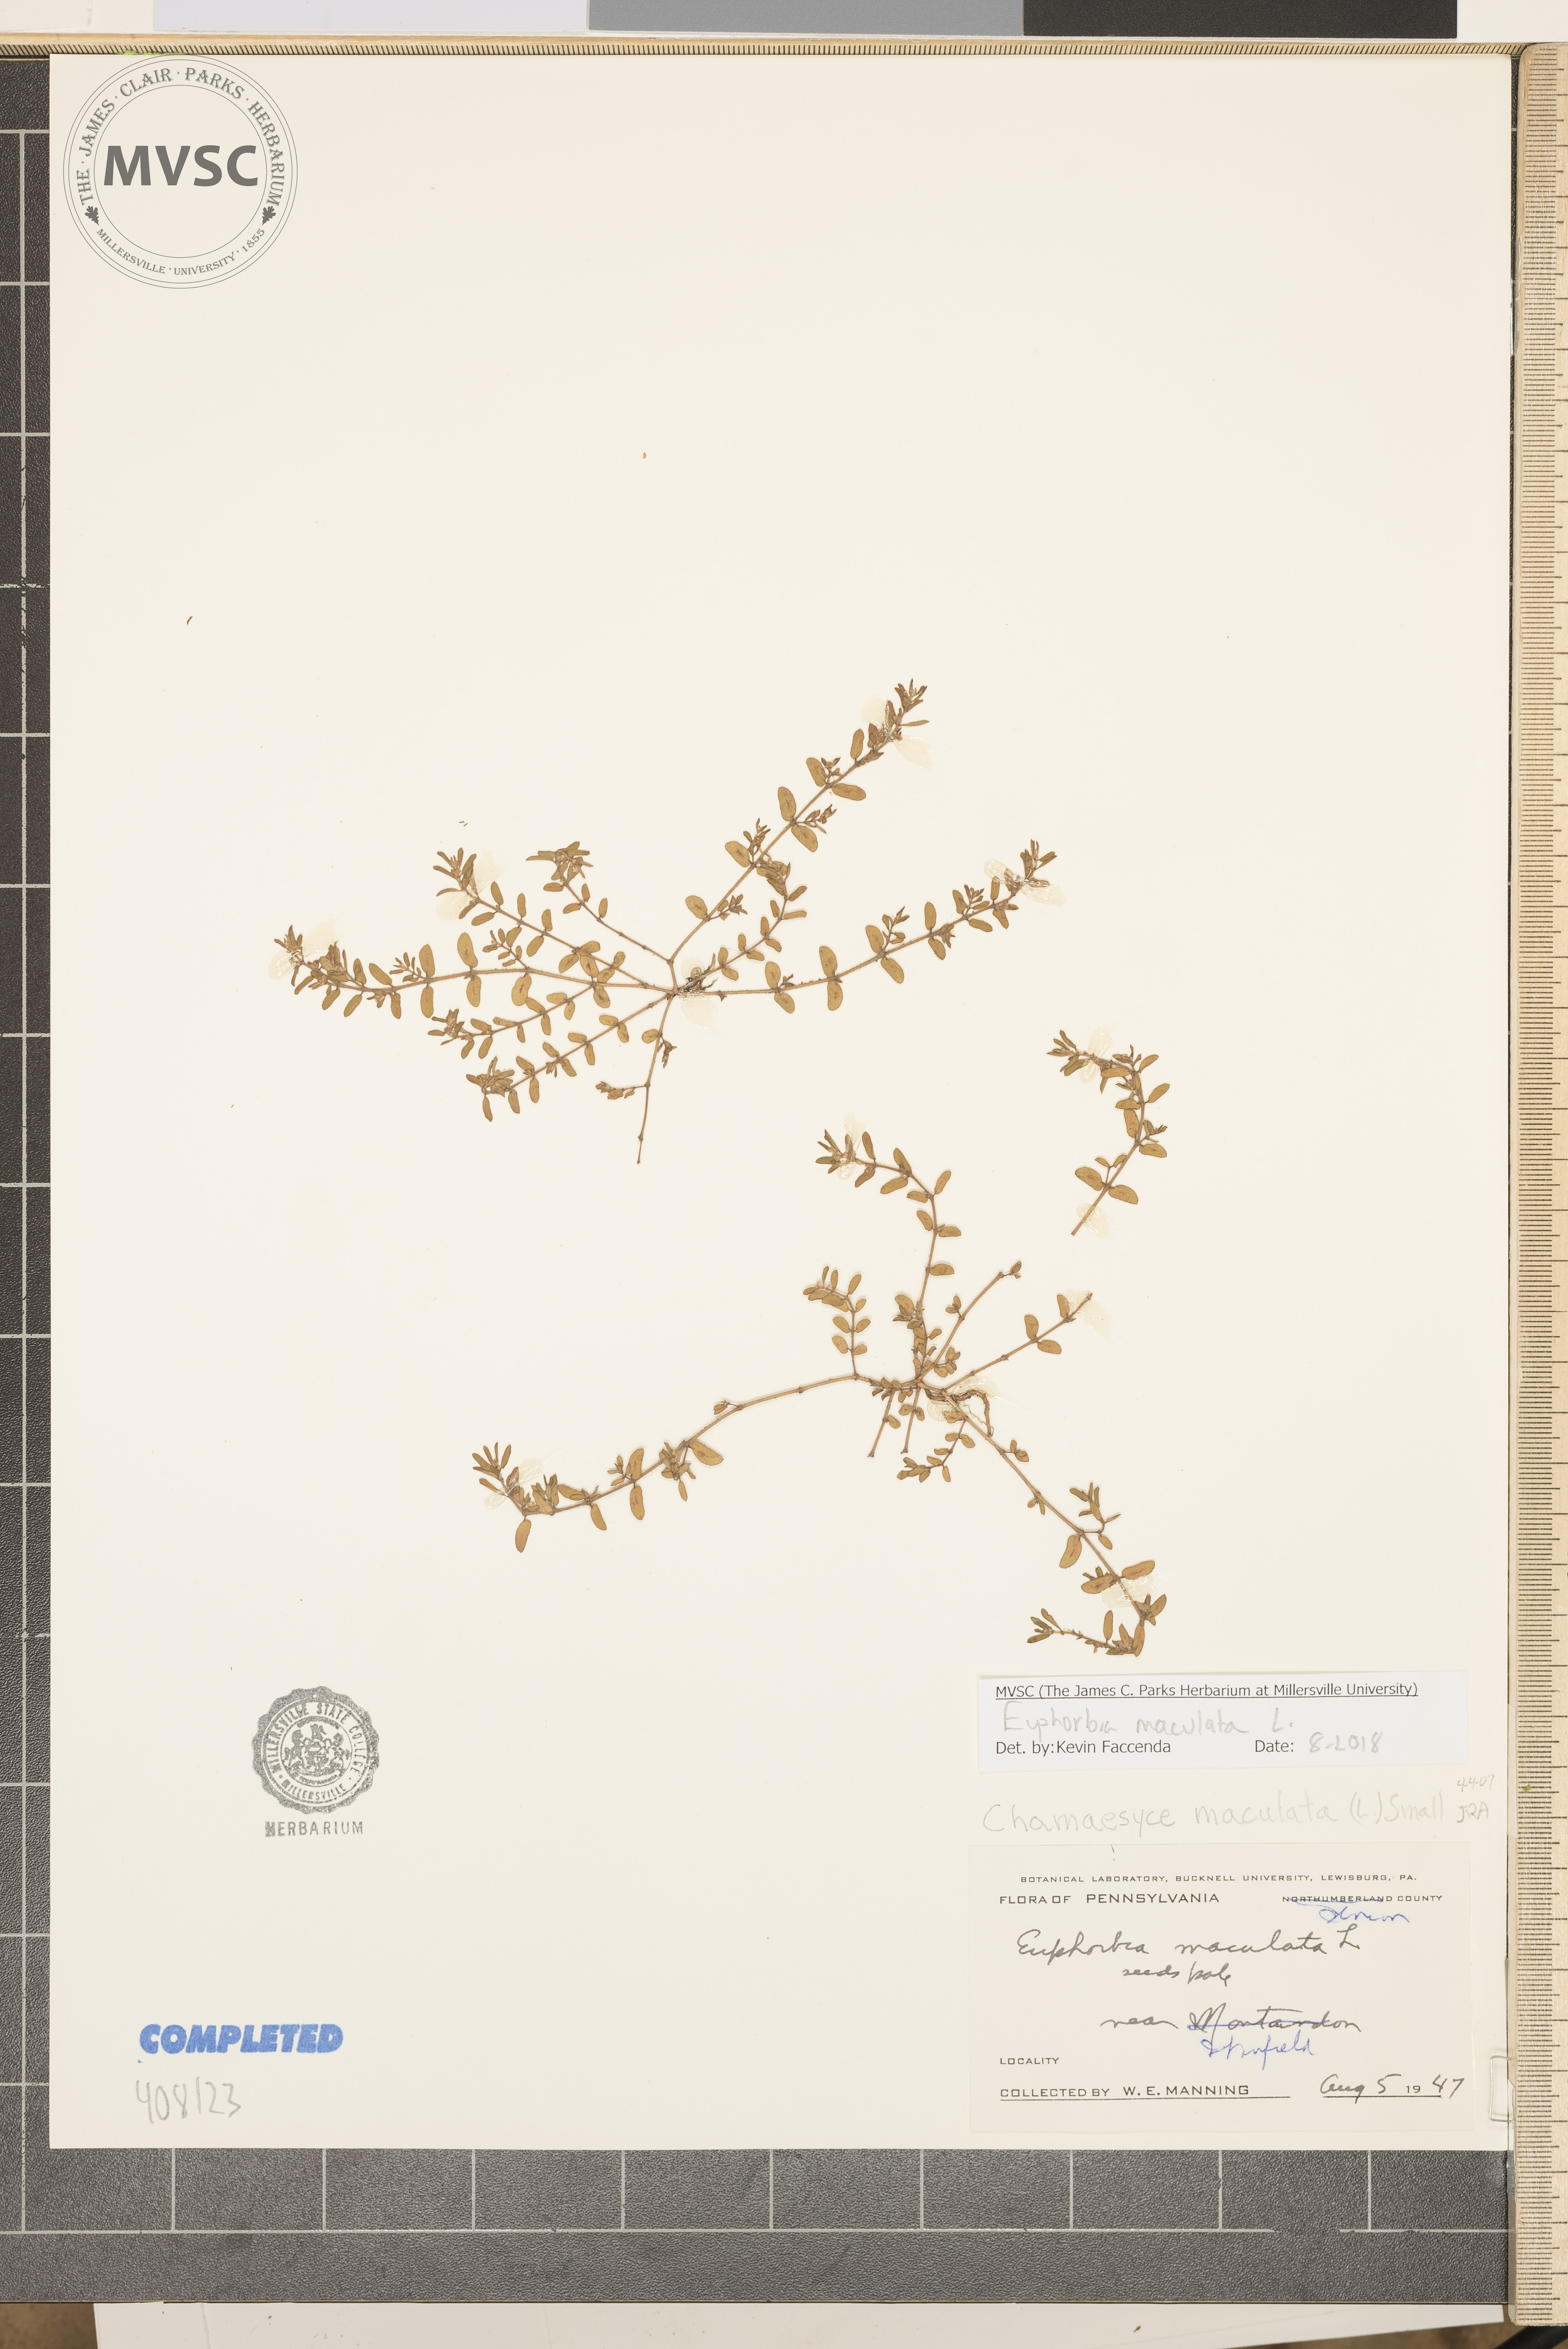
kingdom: Plantae
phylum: Tracheophyta
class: Magnoliopsida
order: Malpighiales
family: Euphorbiaceae
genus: Euphorbia
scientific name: Euphorbia maculata
